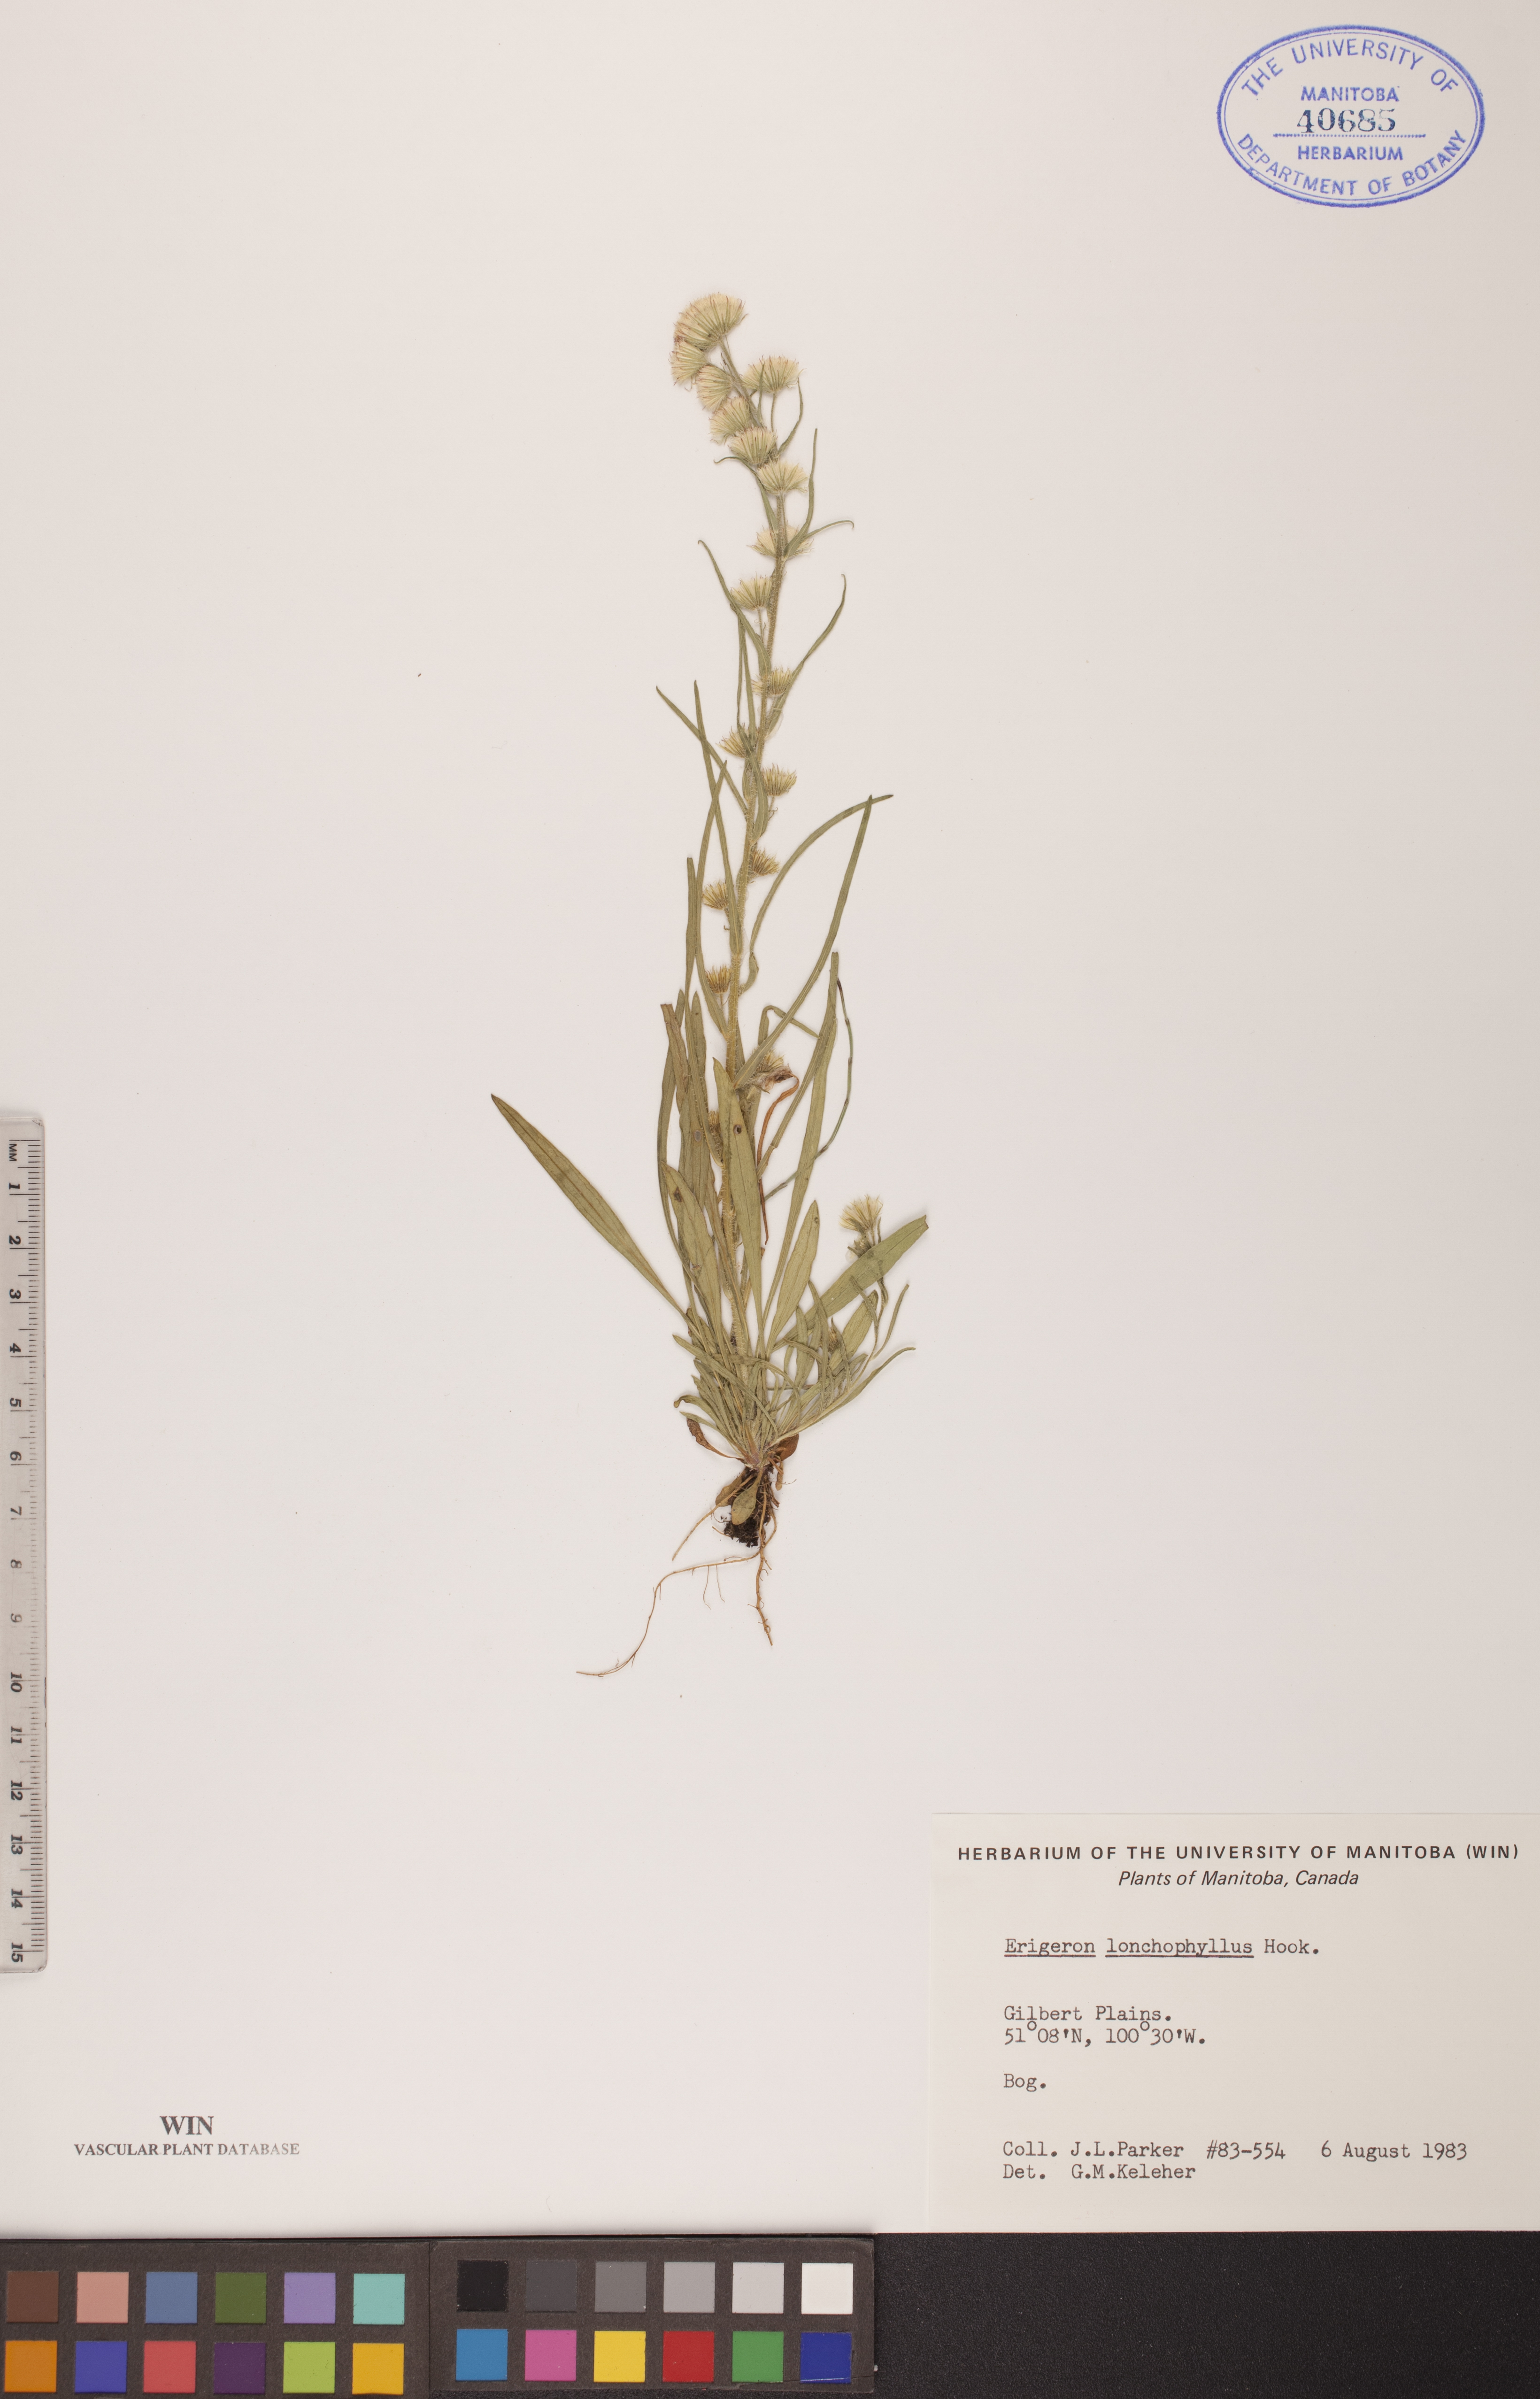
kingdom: Plantae
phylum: Tracheophyta
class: Magnoliopsida
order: Asterales
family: Asteraceae
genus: Erigeron
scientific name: Erigeron lonchophyllus
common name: Short-ray fleabane
